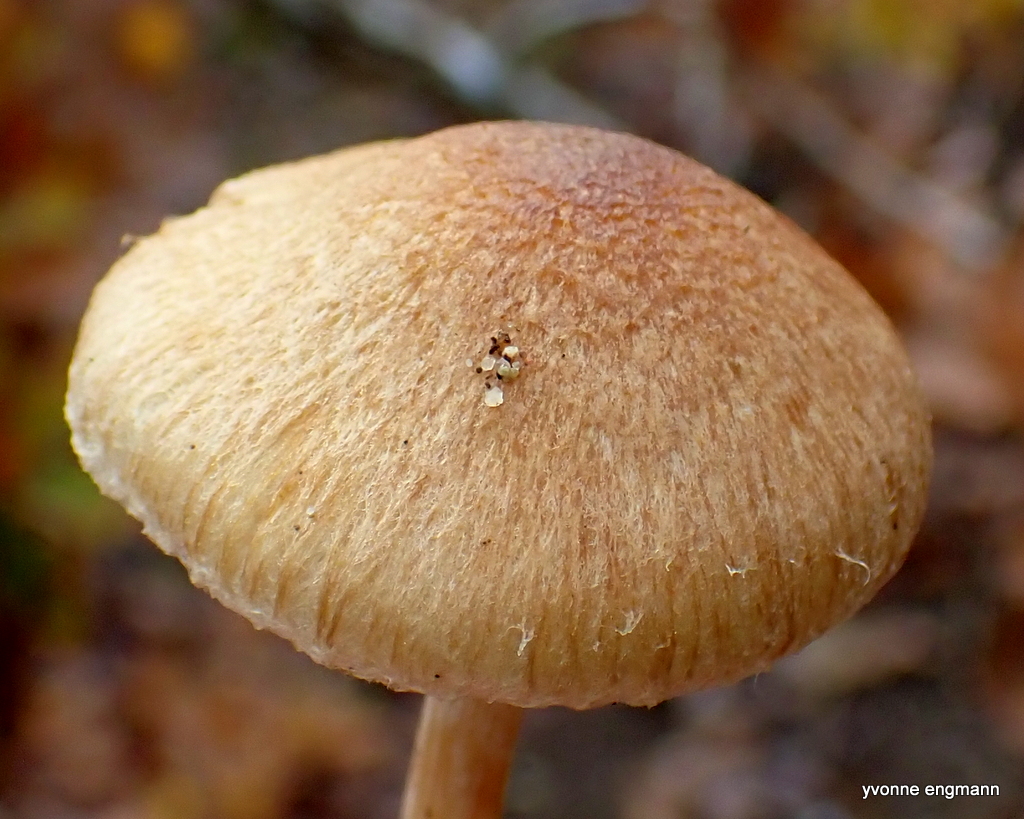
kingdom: Fungi
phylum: Basidiomycota
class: Agaricomycetes
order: Agaricales
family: Inocybaceae
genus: Inocybe
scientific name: Inocybe
